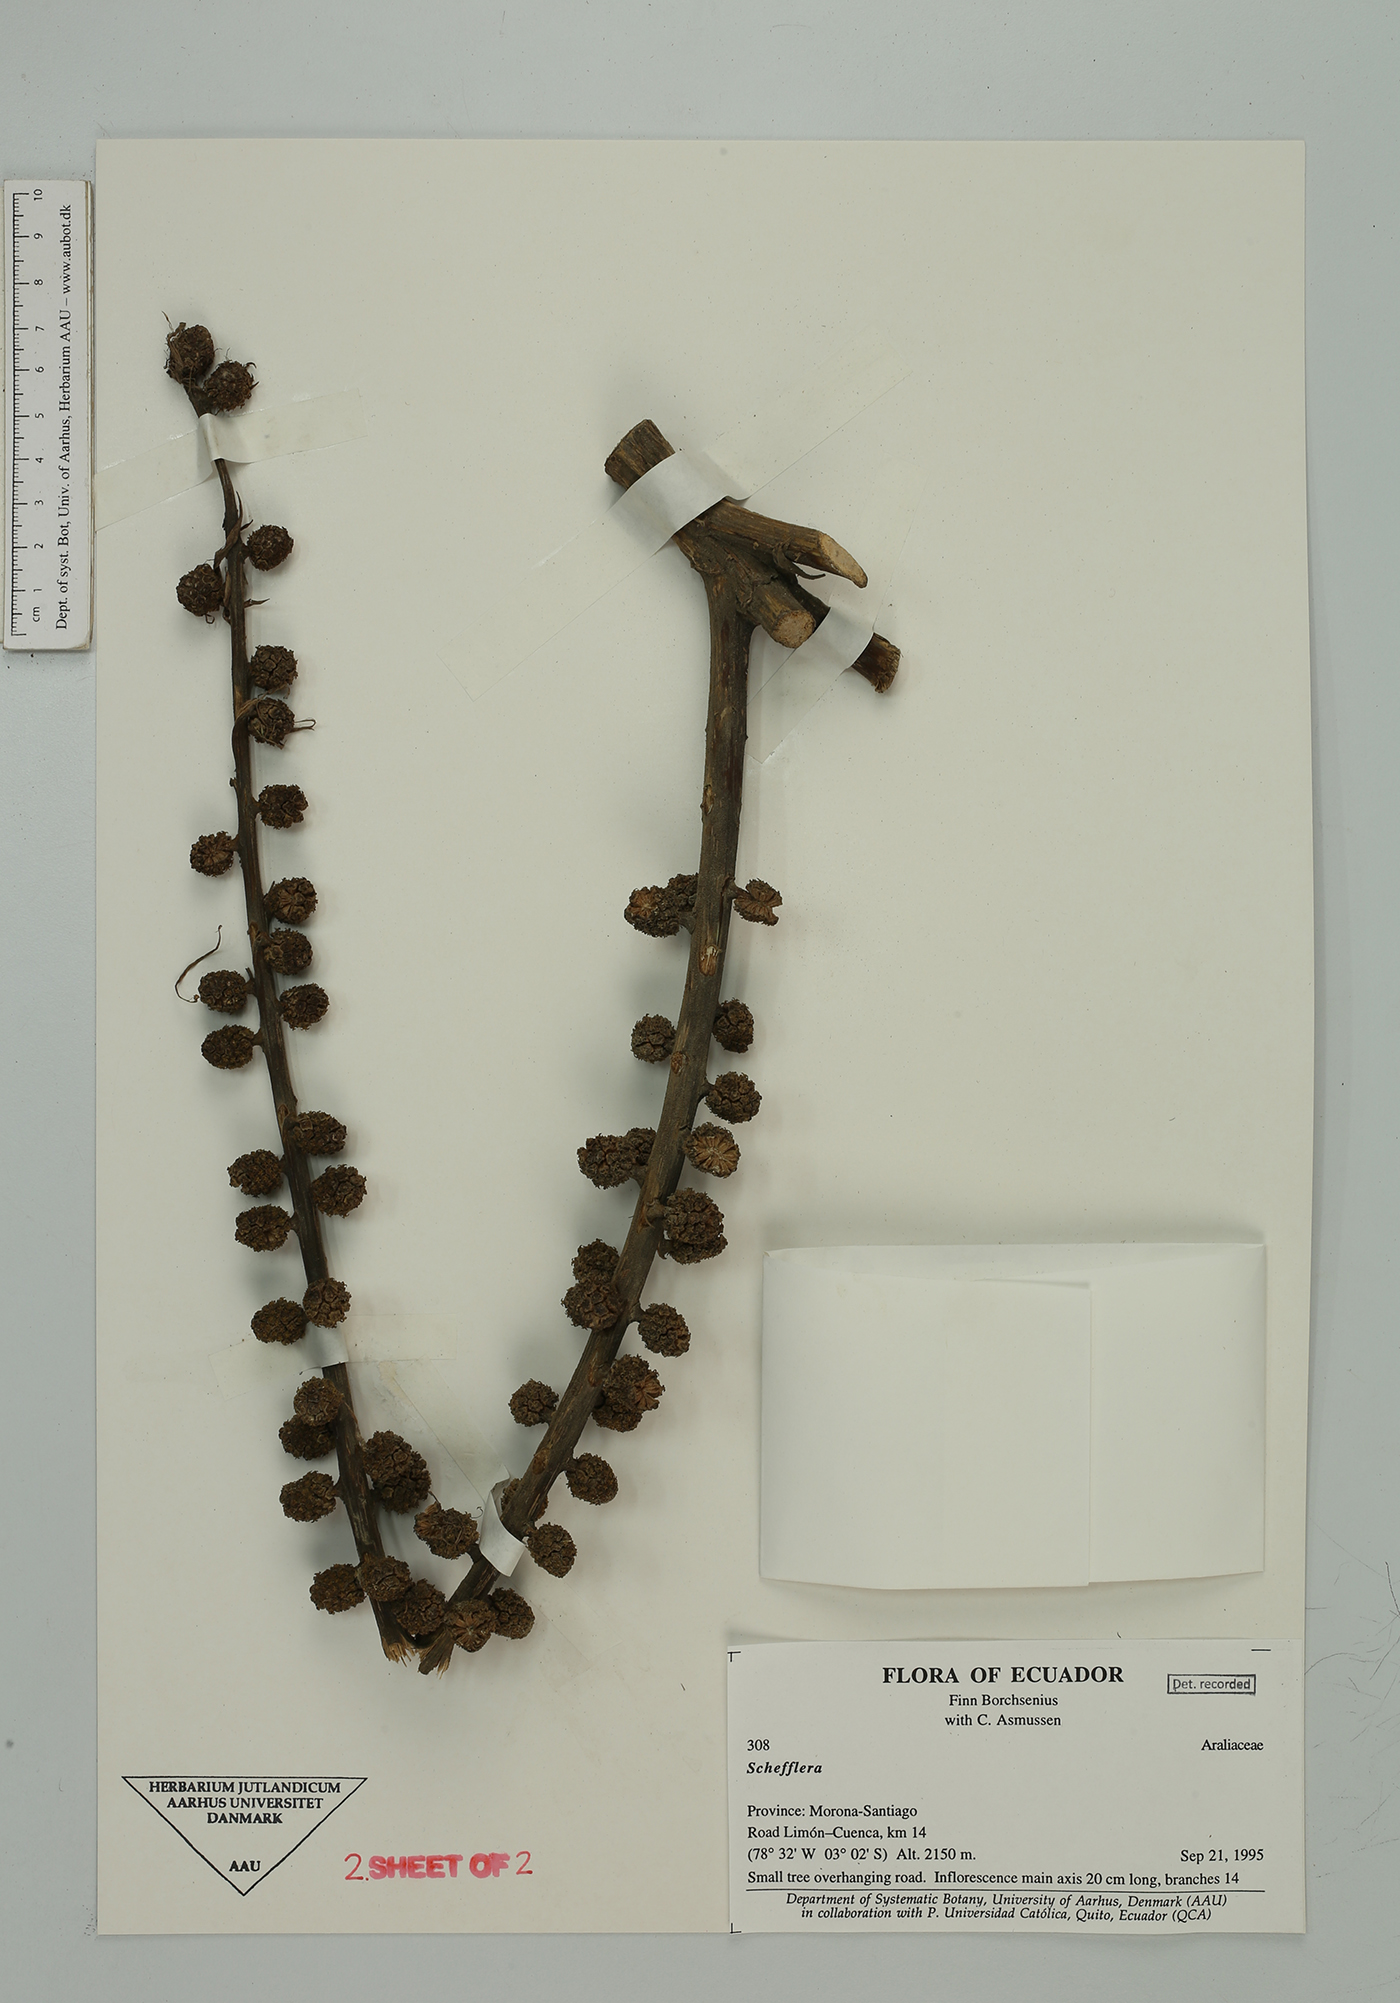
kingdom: Plantae
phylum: Tracheophyta
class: Magnoliopsida
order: Apiales
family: Araliaceae
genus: Sciodaphyllum
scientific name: Sciodaphyllum
